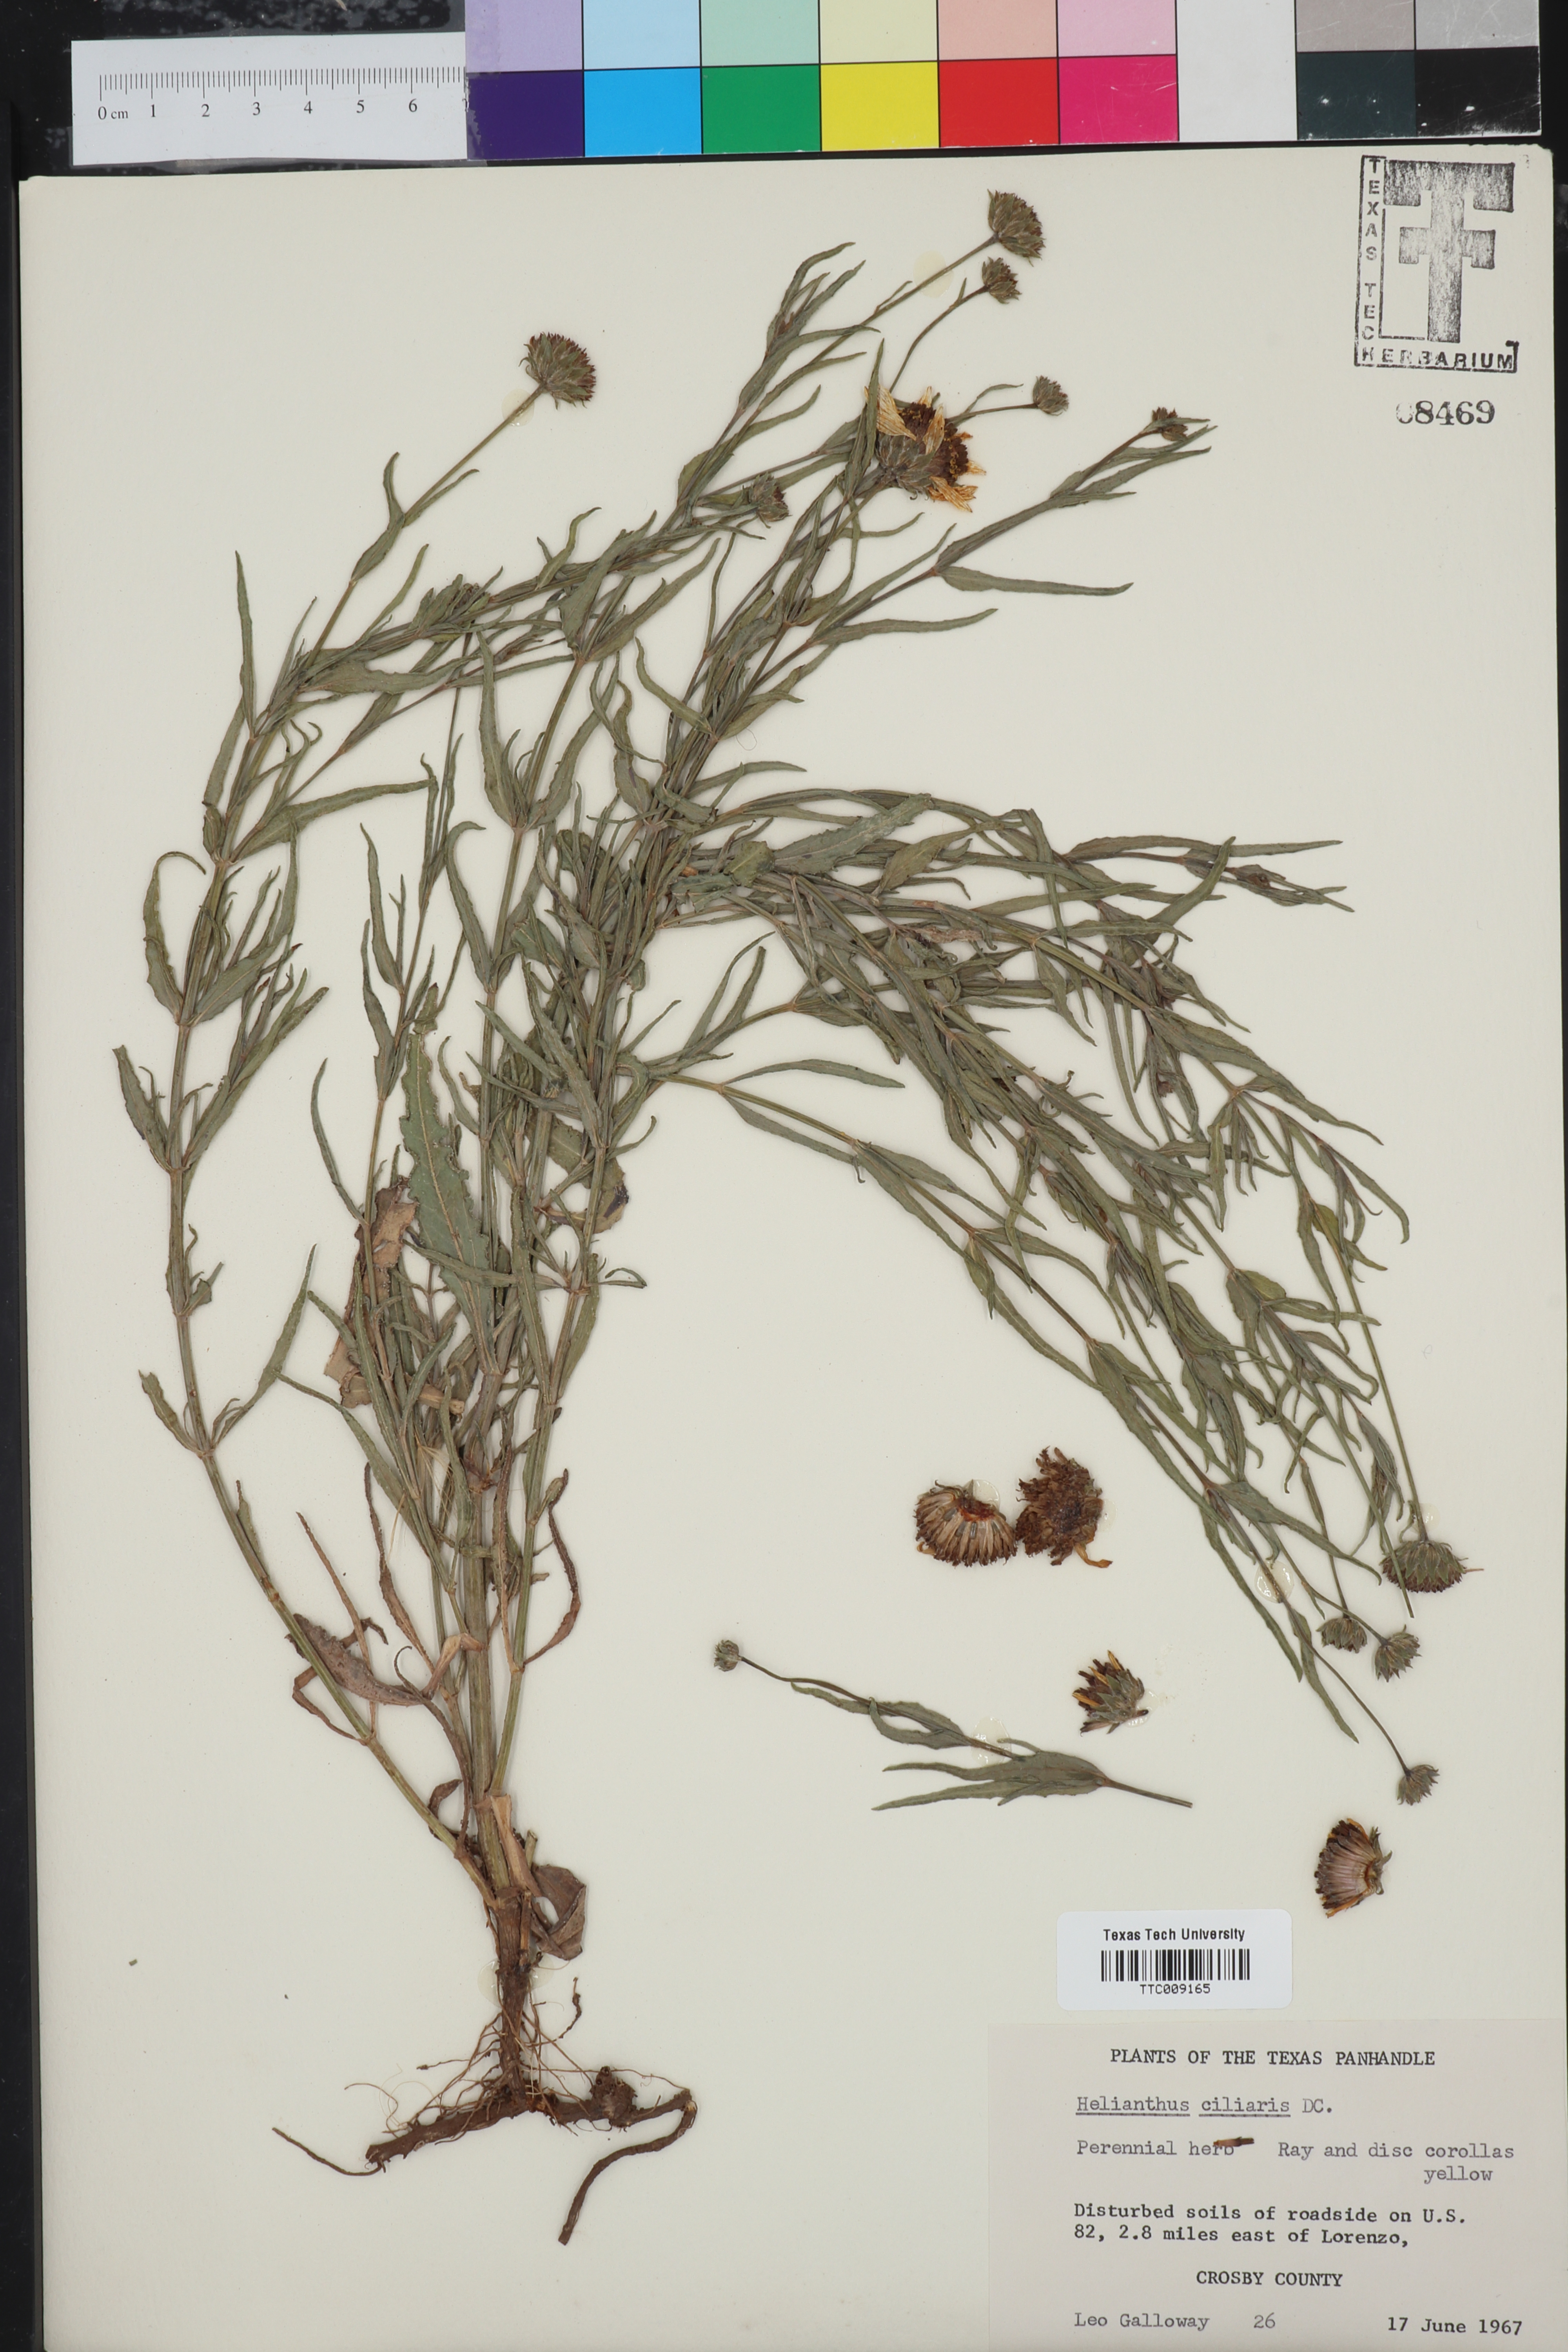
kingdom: Plantae
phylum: Tracheophyta
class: Magnoliopsida
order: Asterales
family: Asteraceae
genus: Helianthus
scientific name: Helianthus ciliaris
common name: Texas blueweed
